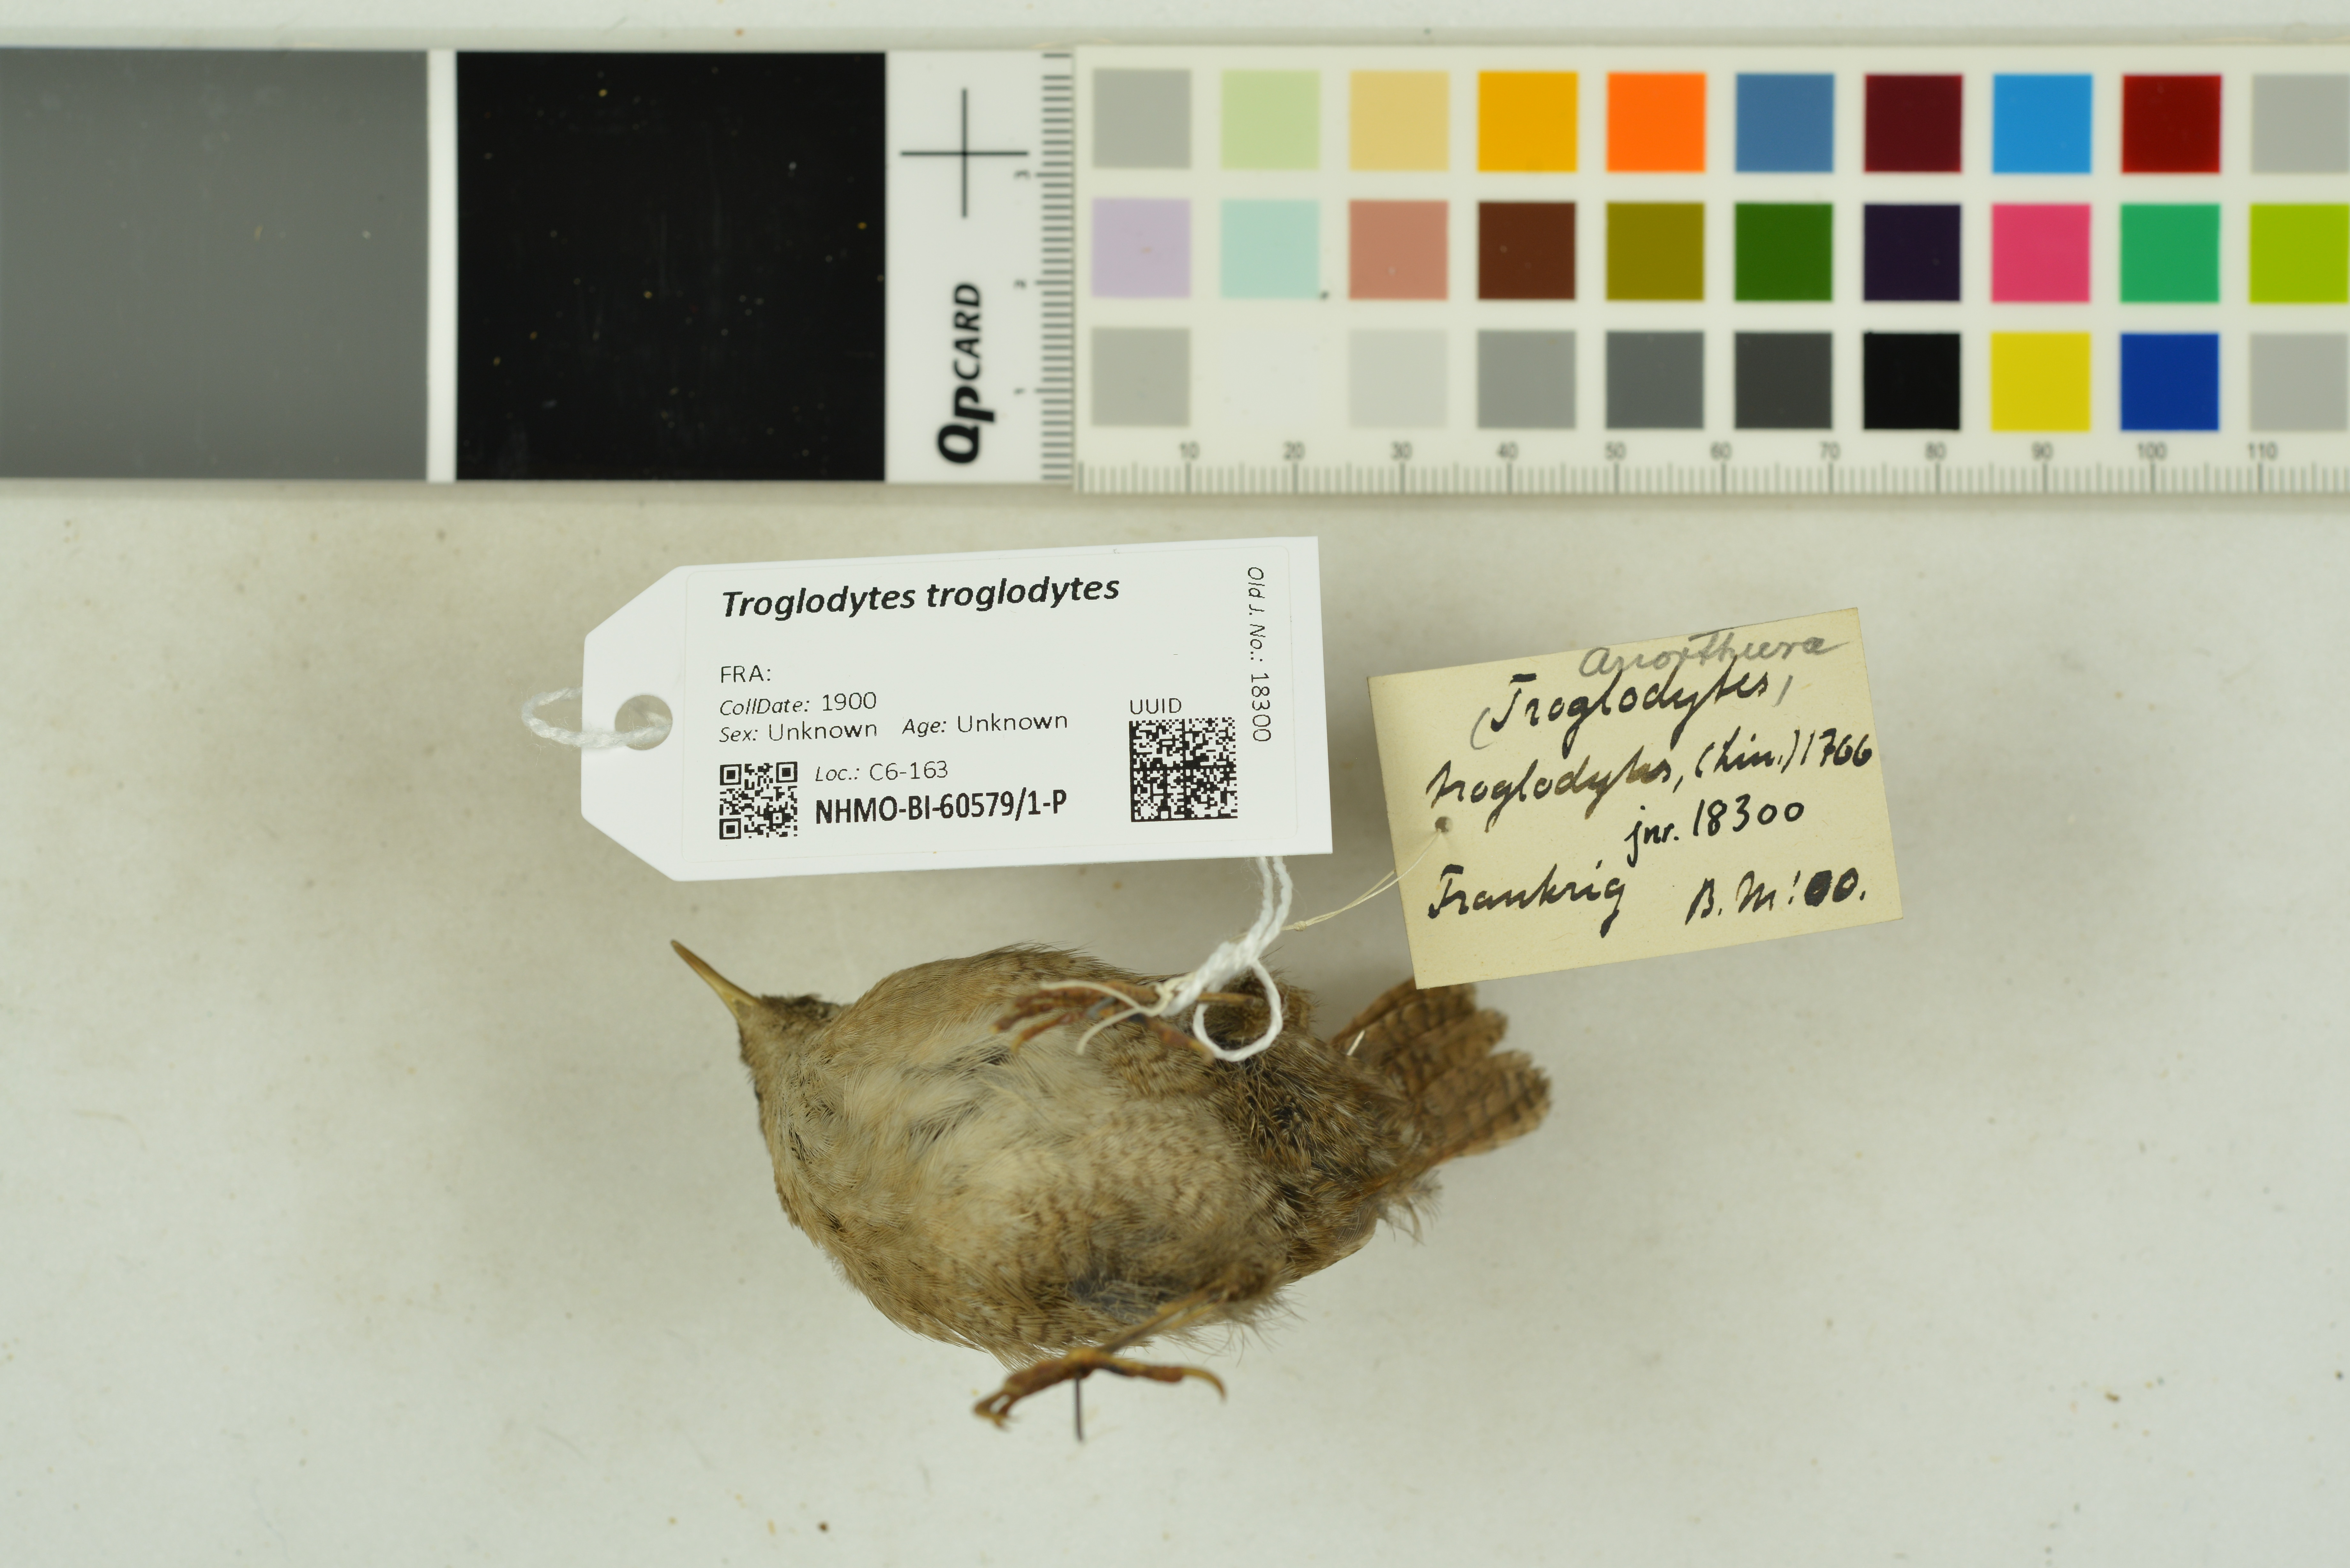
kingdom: Animalia
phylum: Chordata
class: Aves
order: Passeriformes
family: Troglodytidae
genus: Troglodytes
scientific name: Troglodytes troglodytes
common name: Eurasian wren
